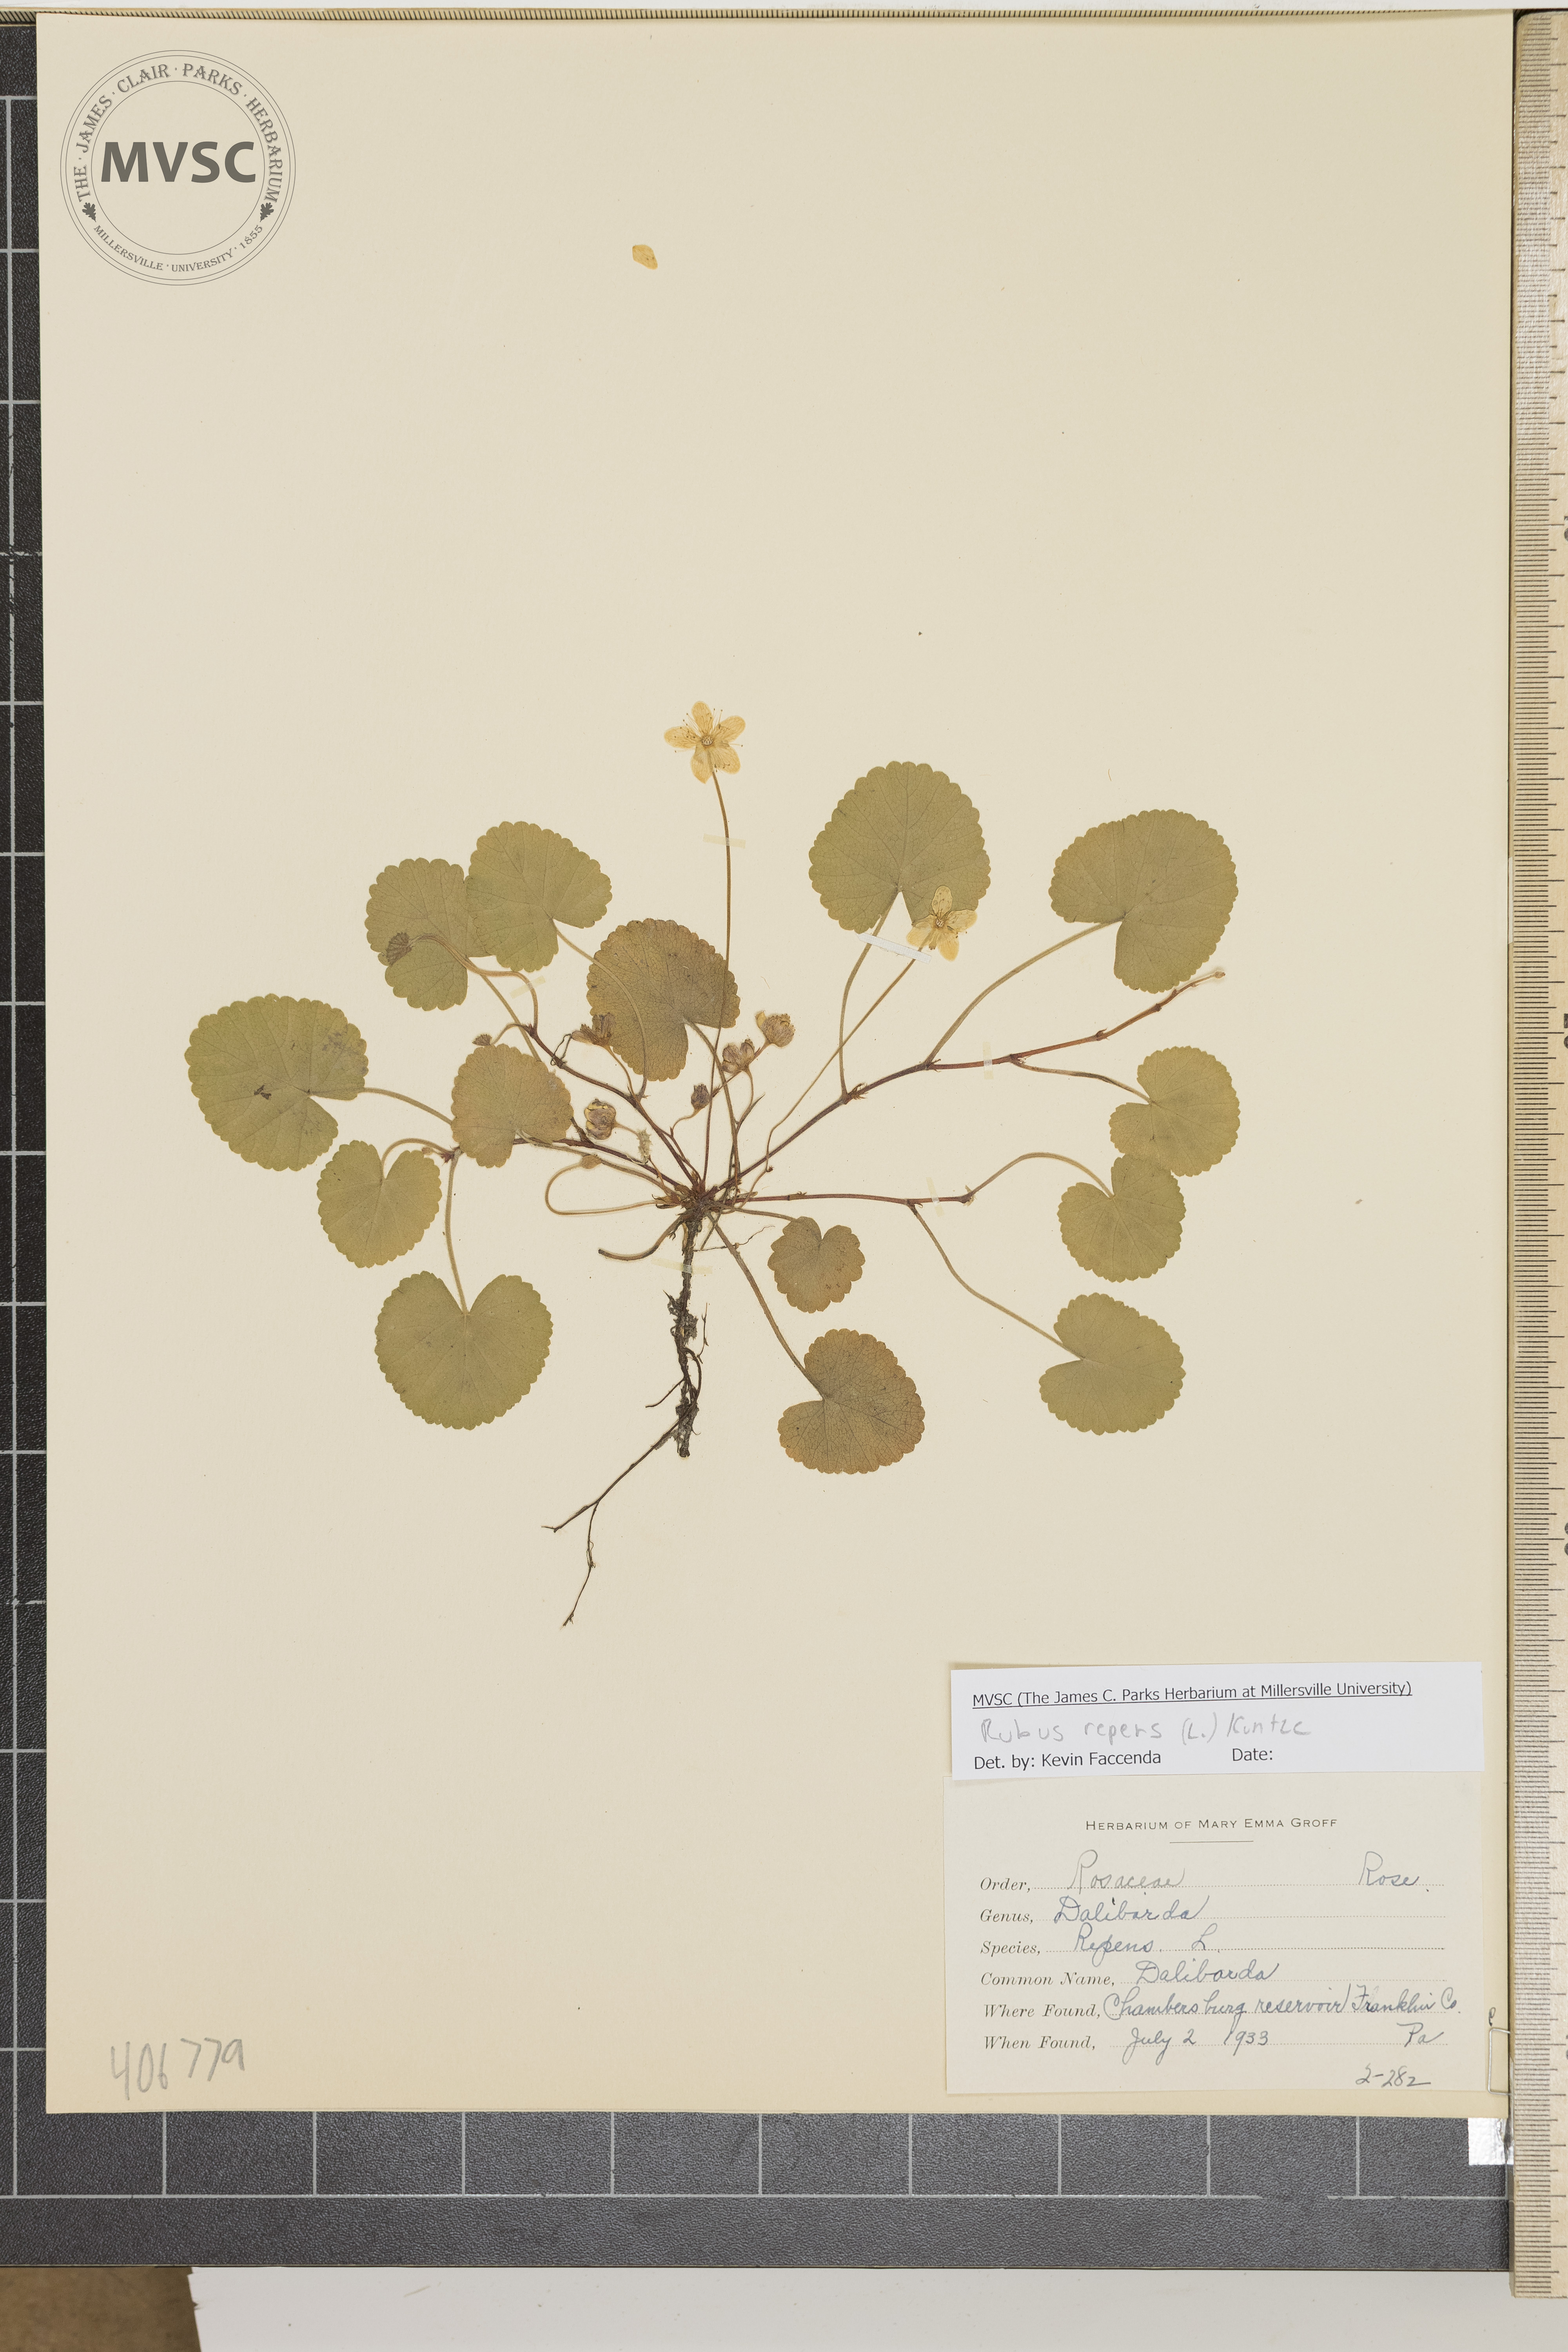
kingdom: Plantae
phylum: Tracheophyta
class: Magnoliopsida
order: Rosales
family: Rosaceae
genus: Dalibarda
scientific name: Dalibarda repens
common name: Dalibarda
